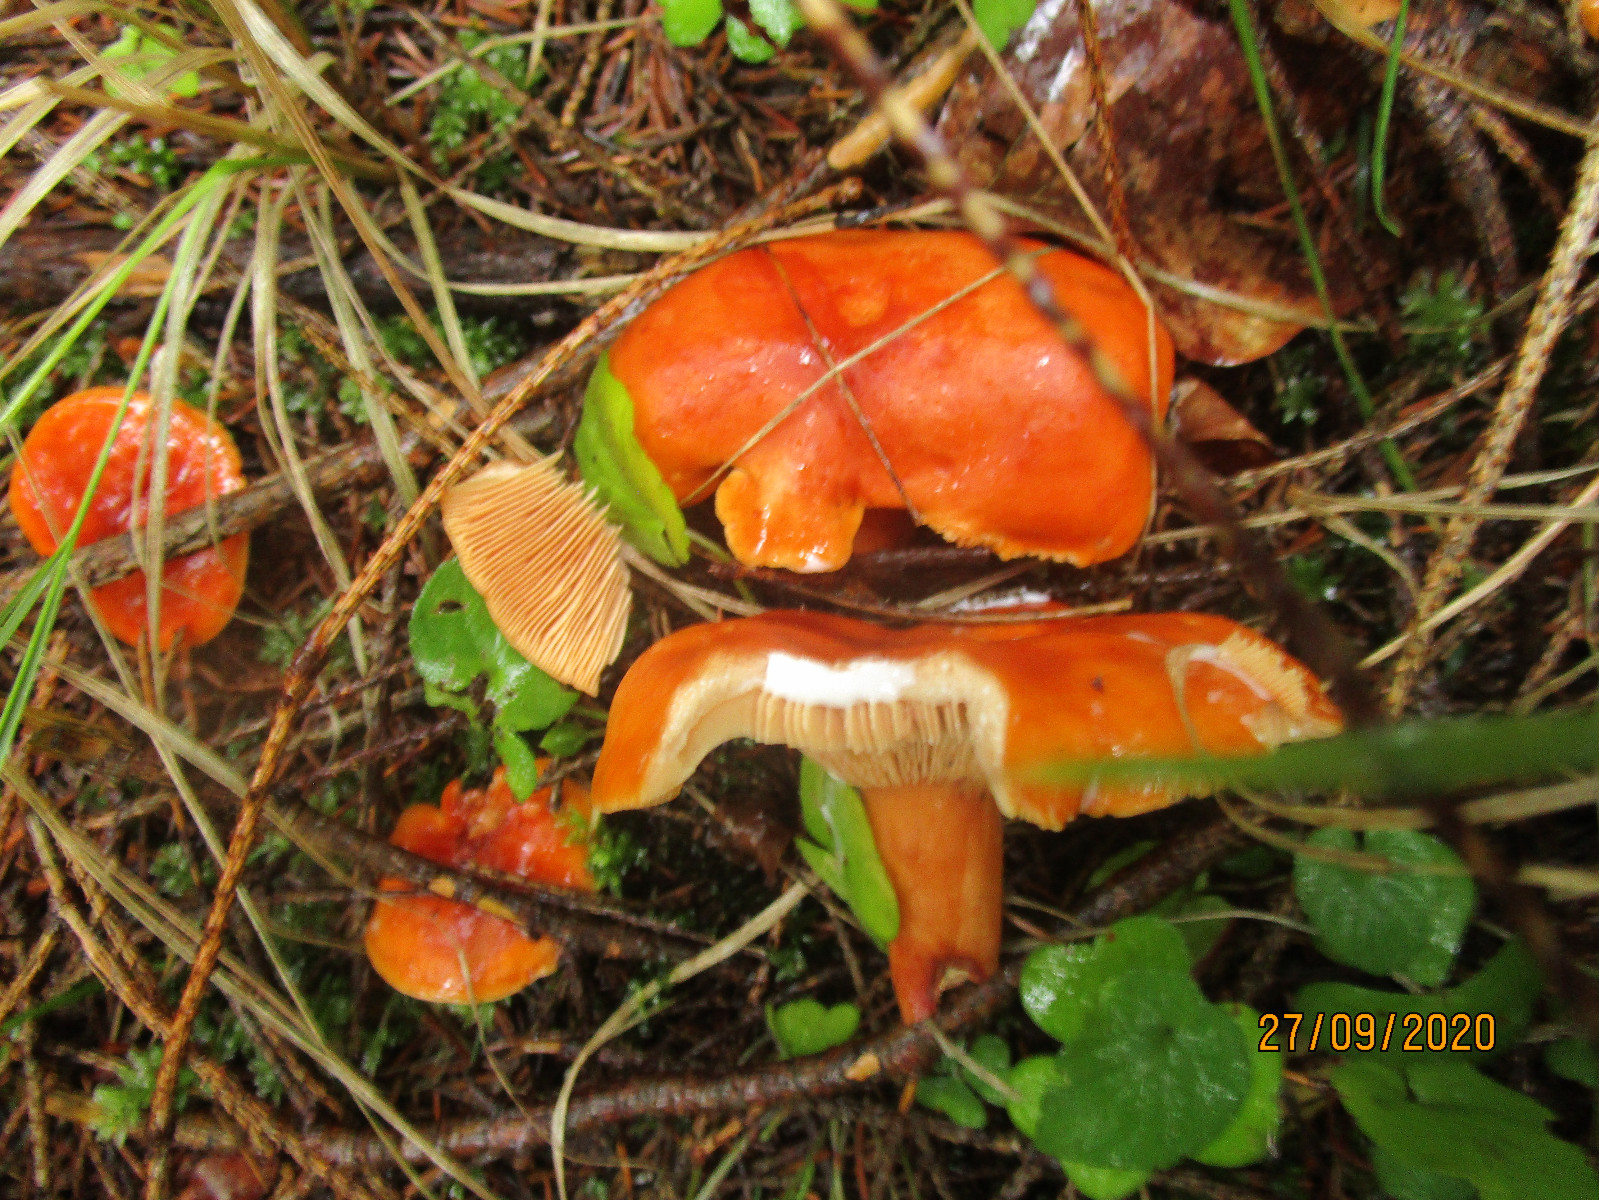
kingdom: Fungi
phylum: Basidiomycota
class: Agaricomycetes
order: Russulales
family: Russulaceae
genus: Lactarius
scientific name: Lactarius fulvissimus
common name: ræve-mælkehat
